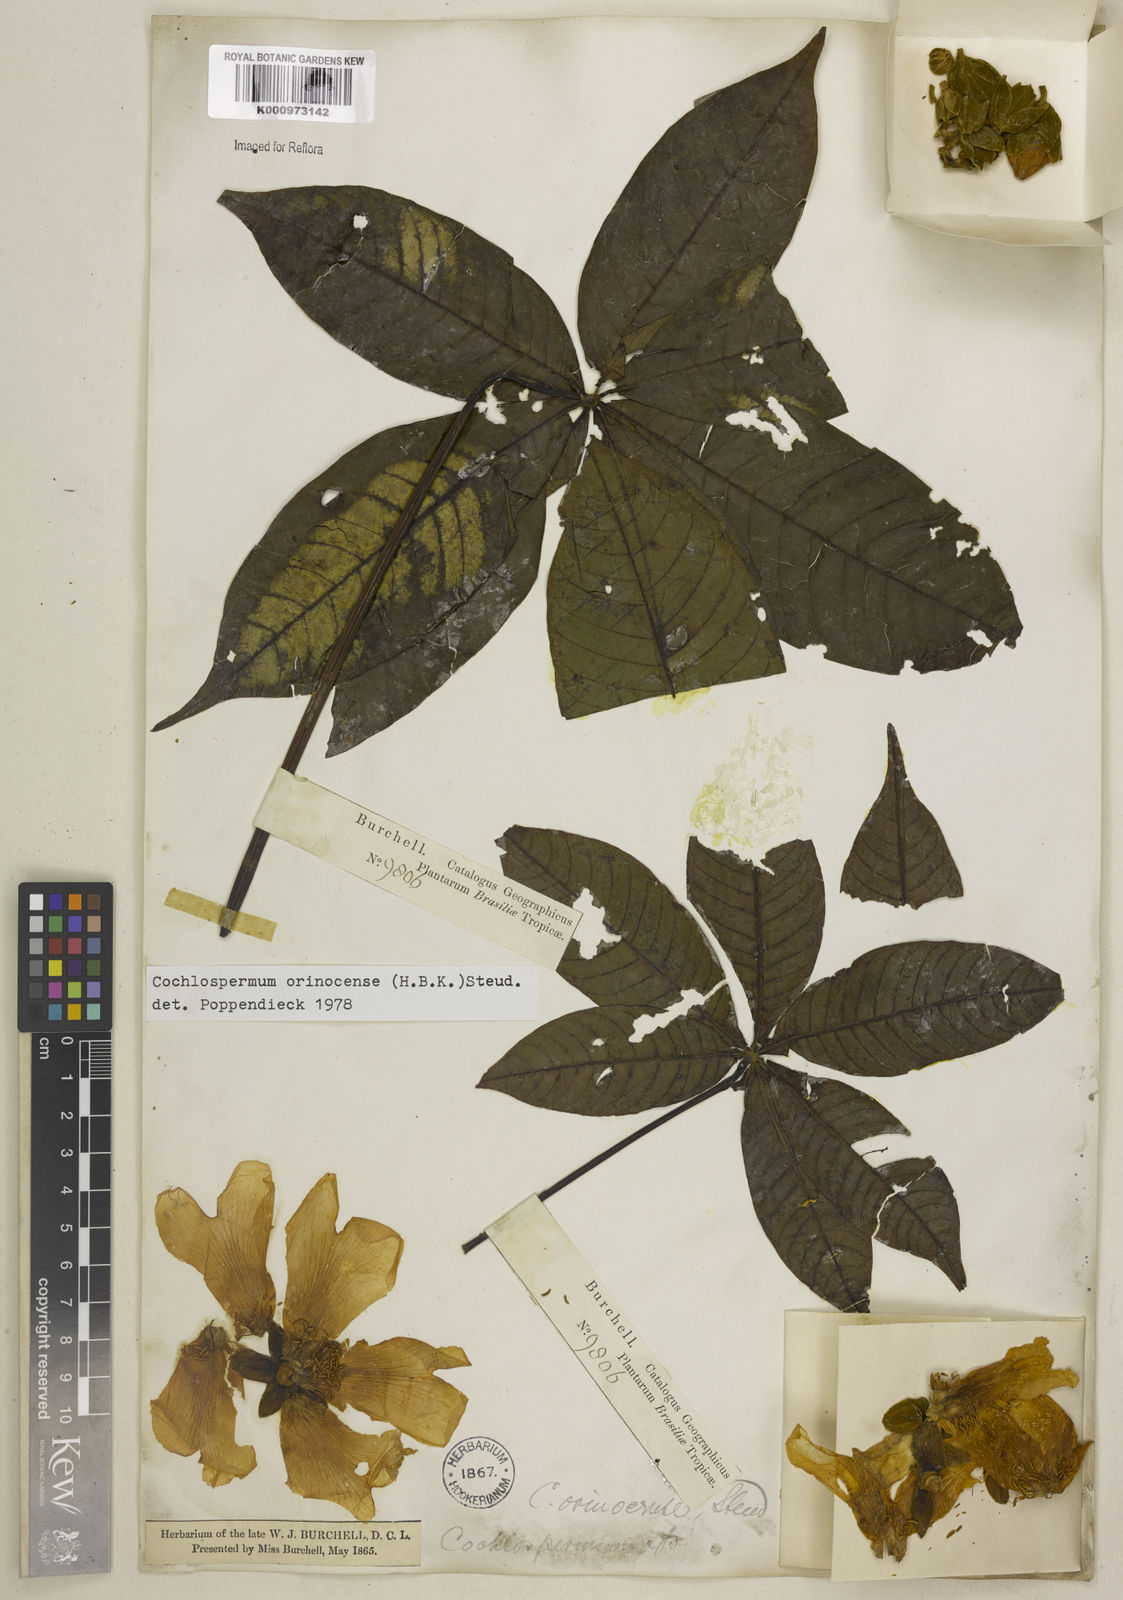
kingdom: Plantae
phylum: Tracheophyta
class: Magnoliopsida
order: Malvales
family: Cochlospermaceae
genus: Cochlospermum
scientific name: Cochlospermum orinocense
